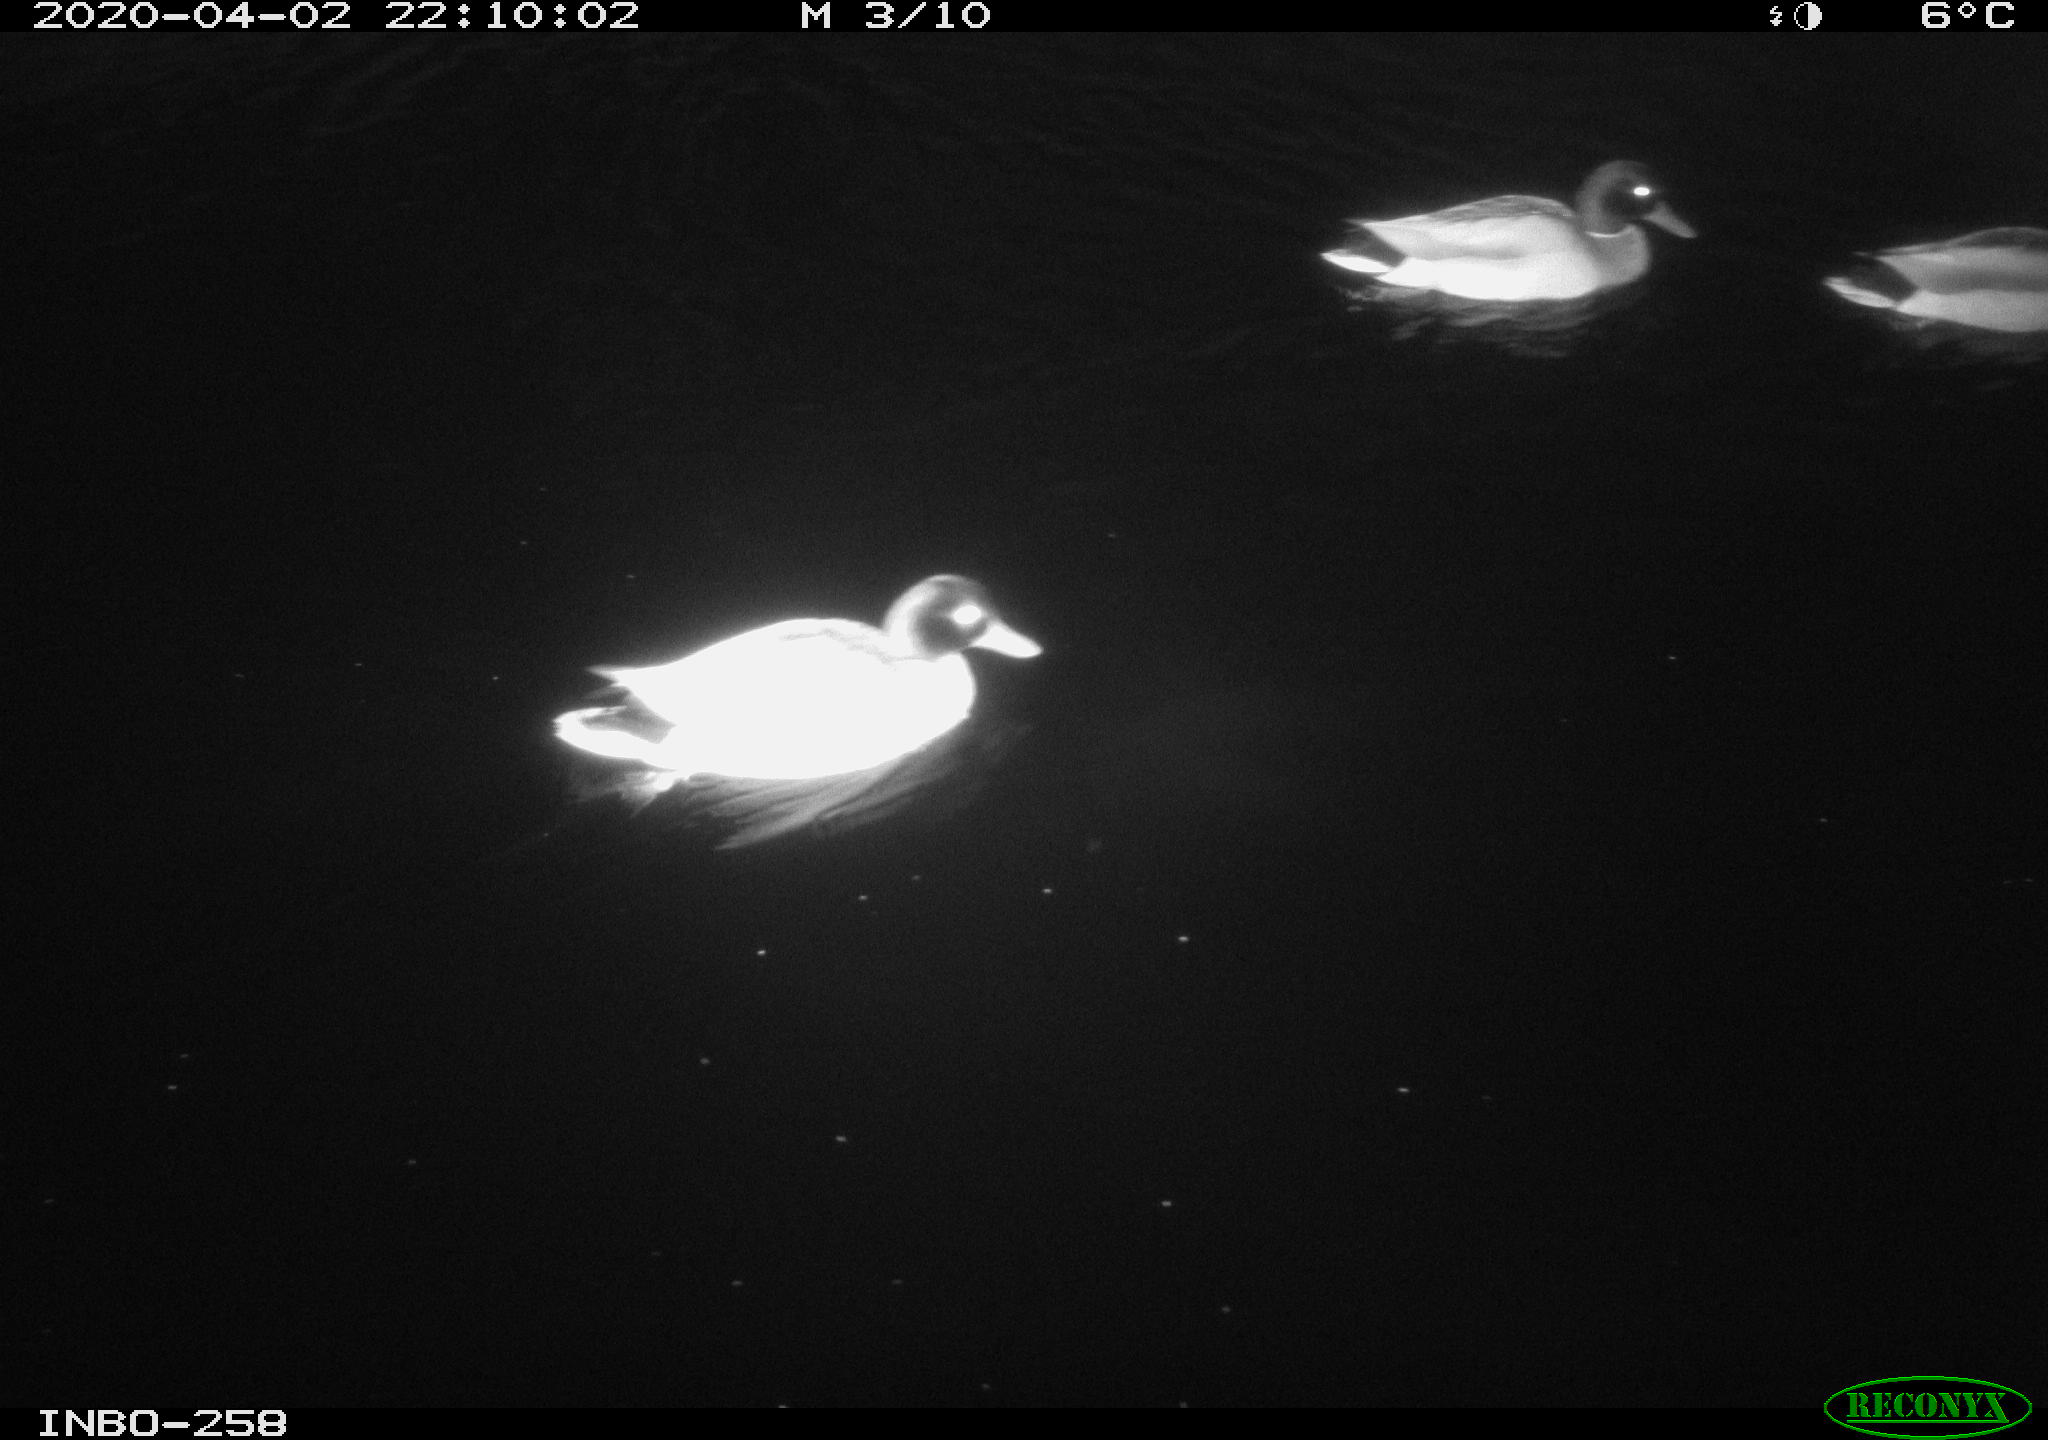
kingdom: Animalia
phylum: Chordata
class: Aves
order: Anseriformes
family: Anatidae
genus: Anas
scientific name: Anas platyrhynchos
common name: Mallard
